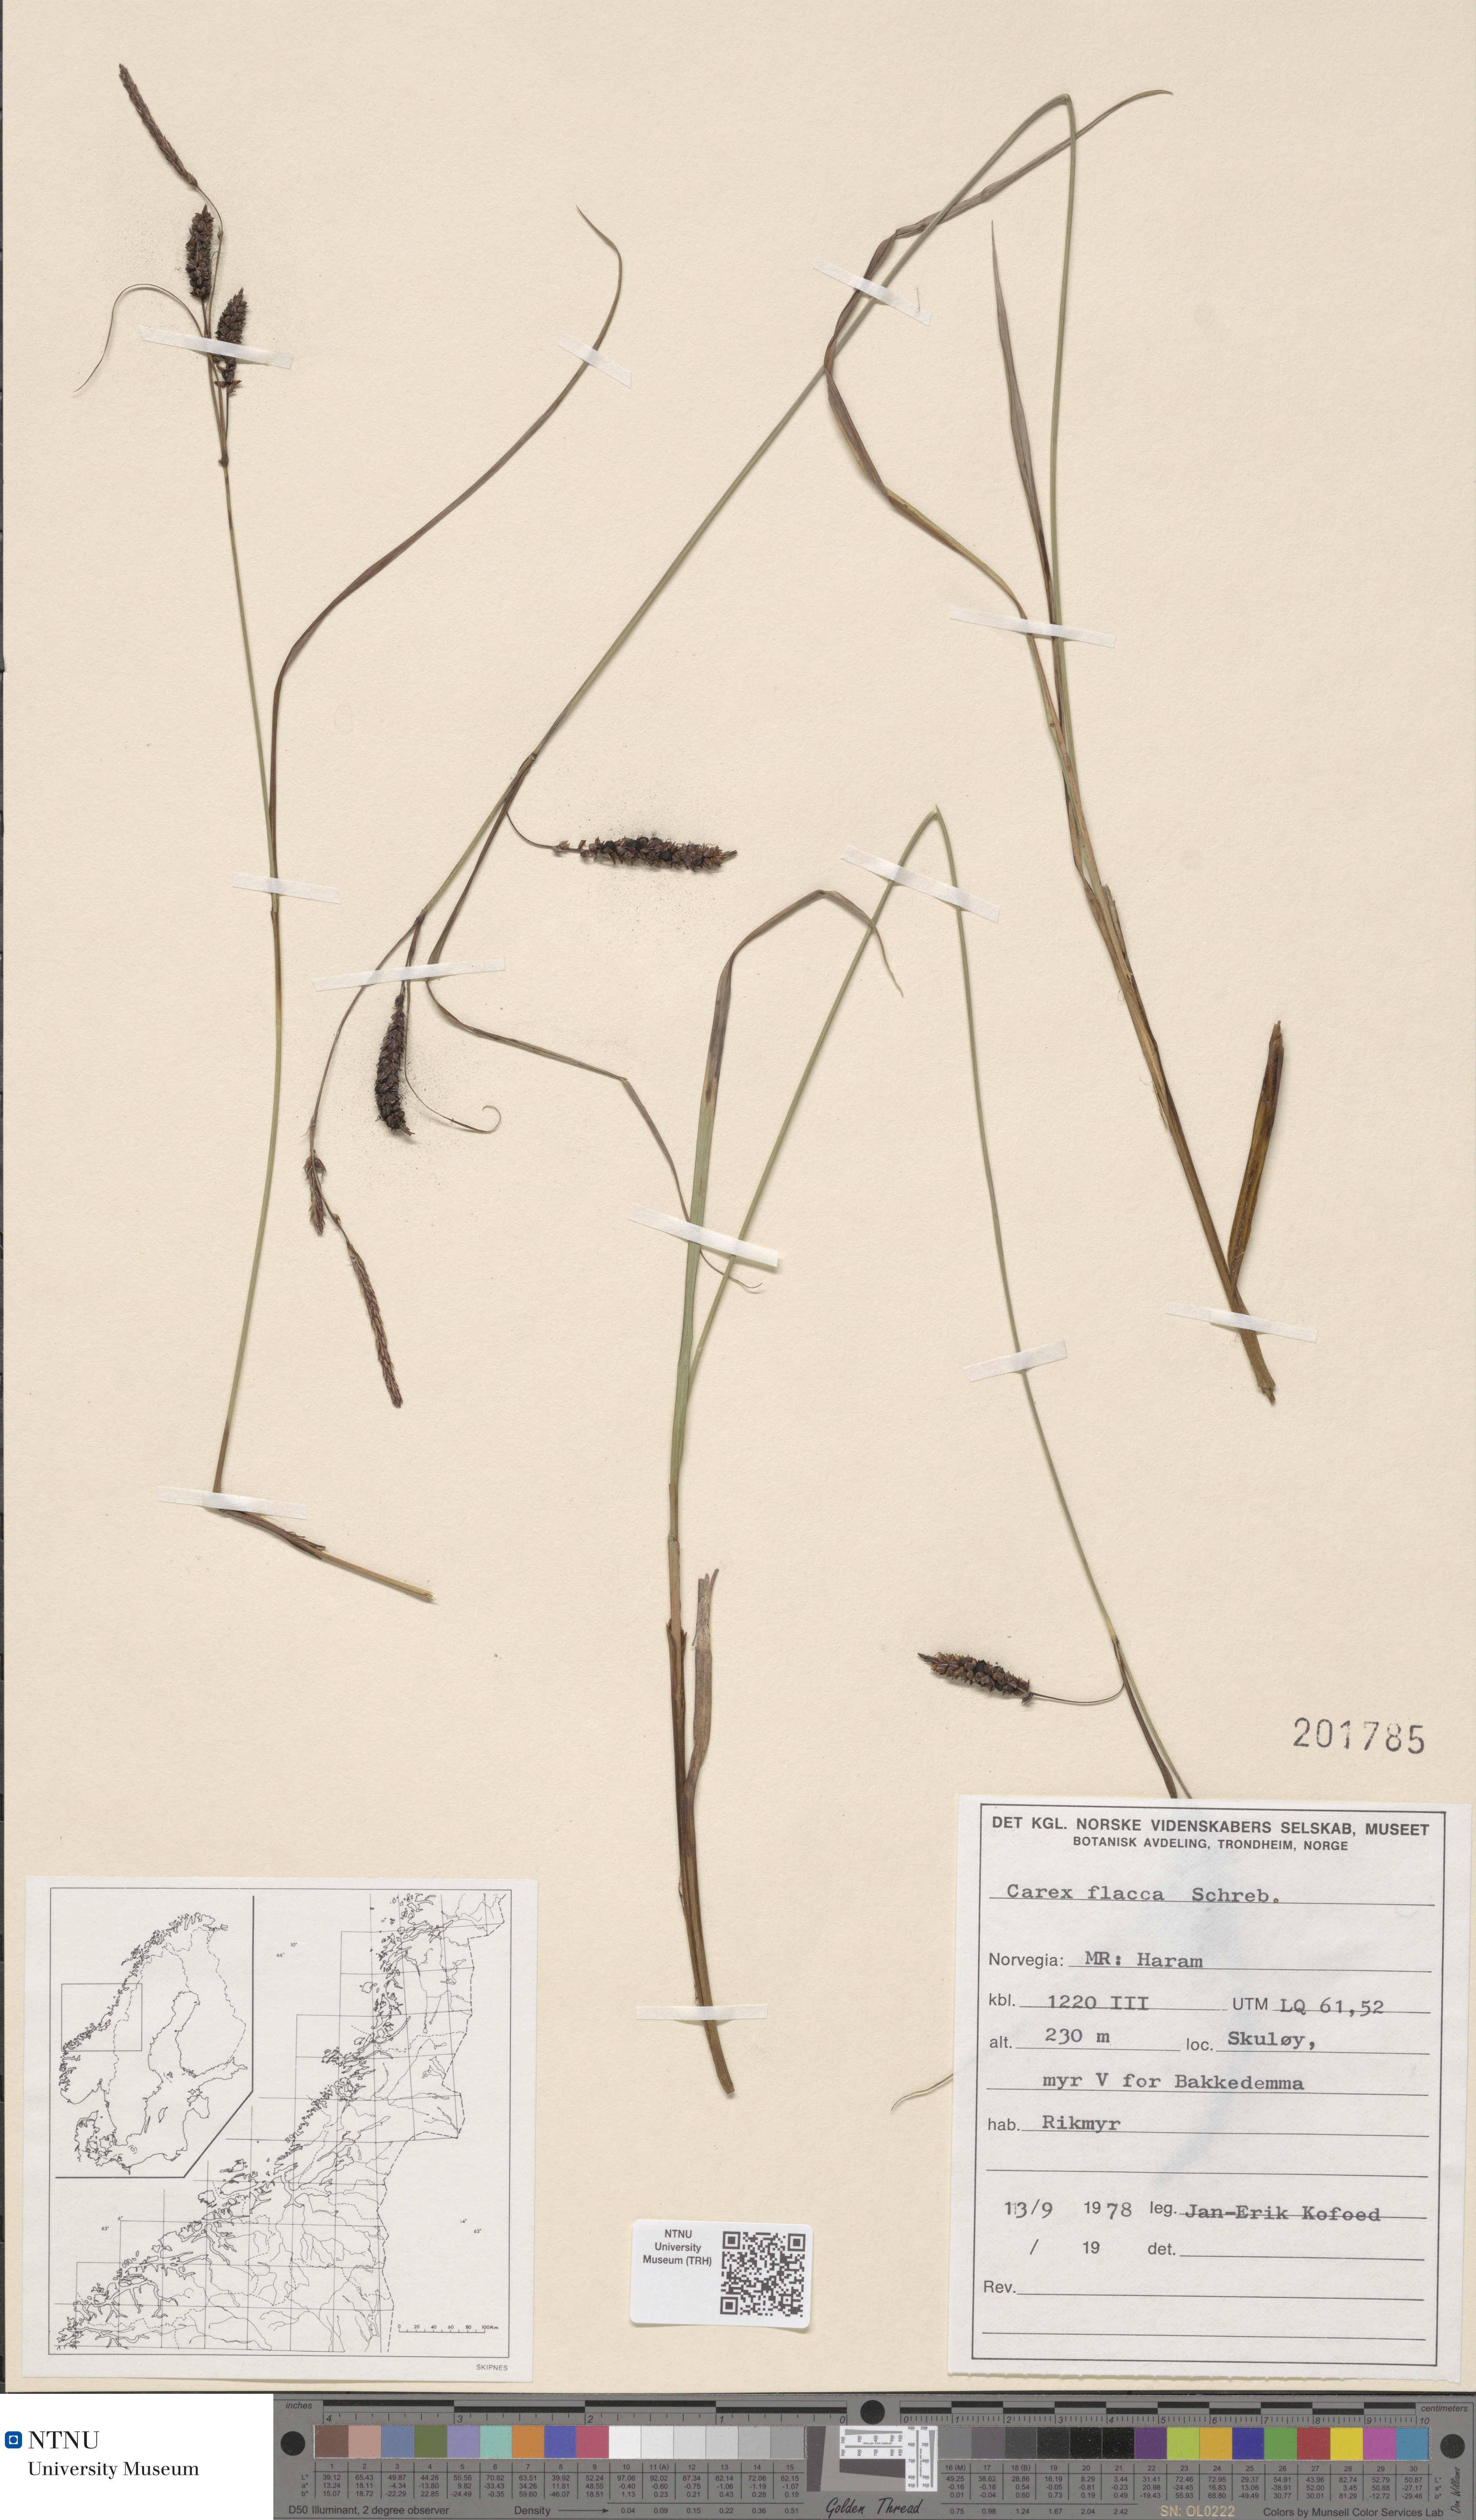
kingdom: Plantae
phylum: Tracheophyta
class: Liliopsida
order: Poales
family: Cyperaceae
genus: Carex
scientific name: Carex flacca
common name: Glaucous sedge
